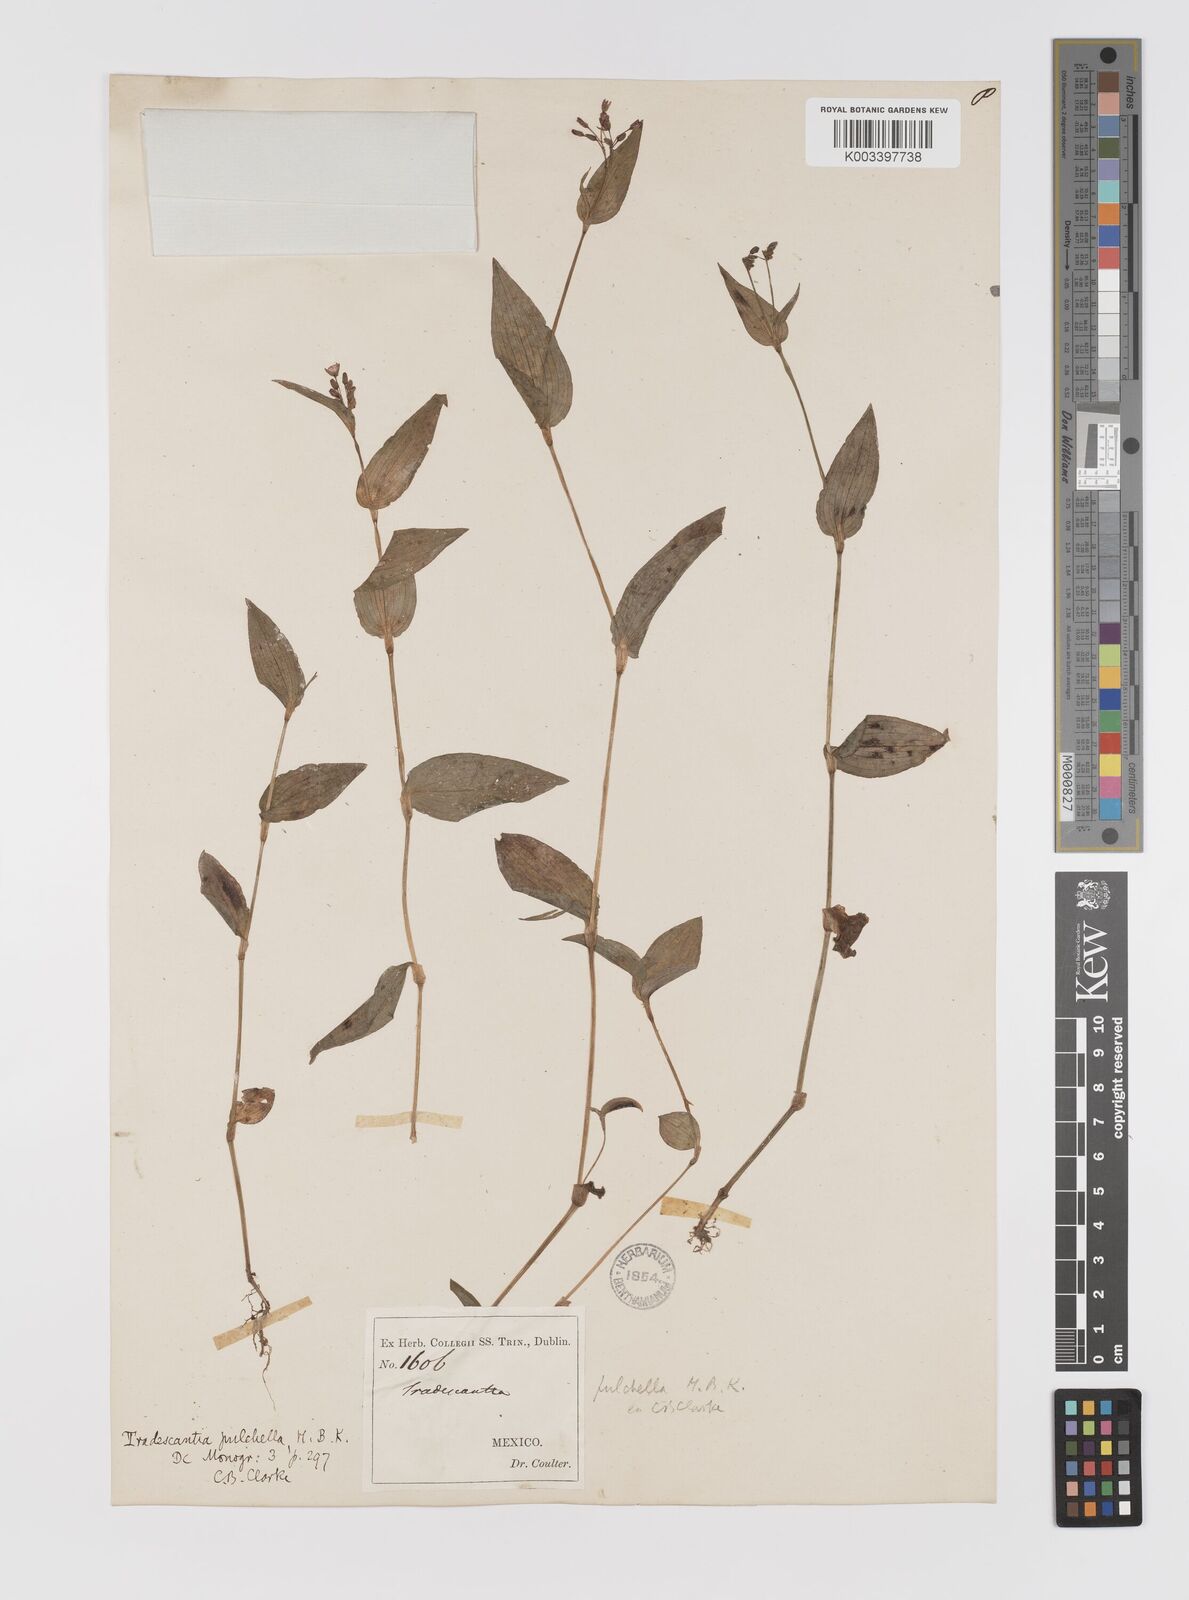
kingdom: Plantae
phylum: Tracheophyta
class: Liliopsida
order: Commelinales
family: Commelinaceae
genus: Gibasis
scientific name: Gibasis pulchella
